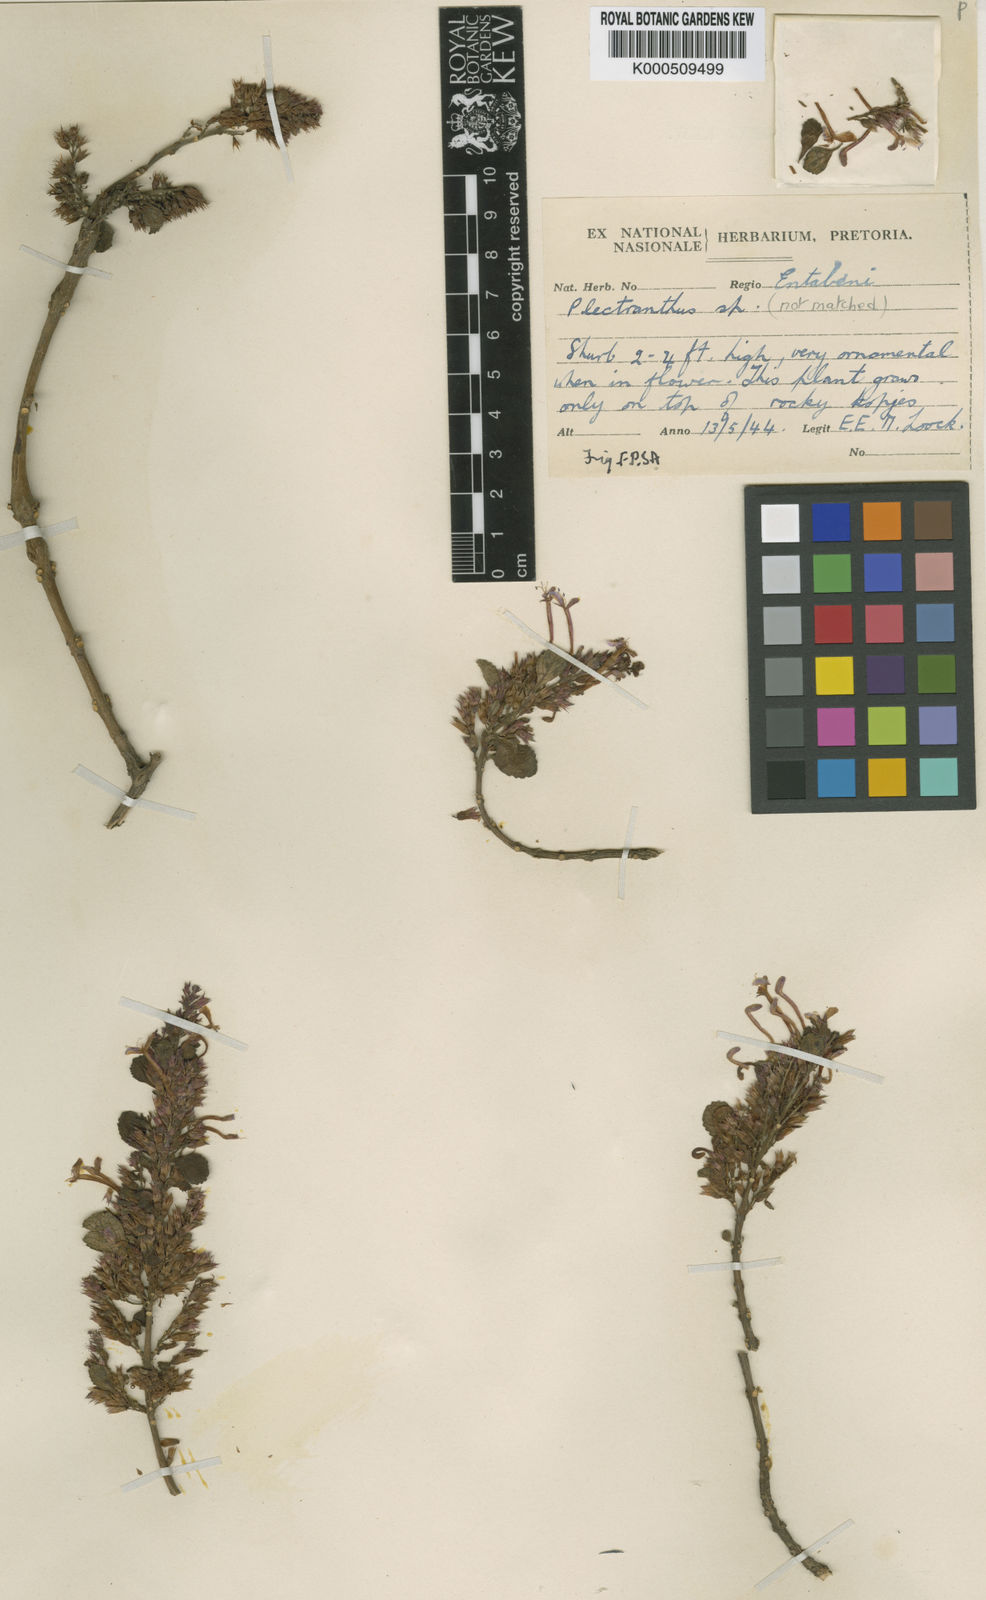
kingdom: Plantae
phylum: Tracheophyta
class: Magnoliopsida
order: Lamiales
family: Lamiaceae
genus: Thorncroftia
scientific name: Thorncroftia longiflora
